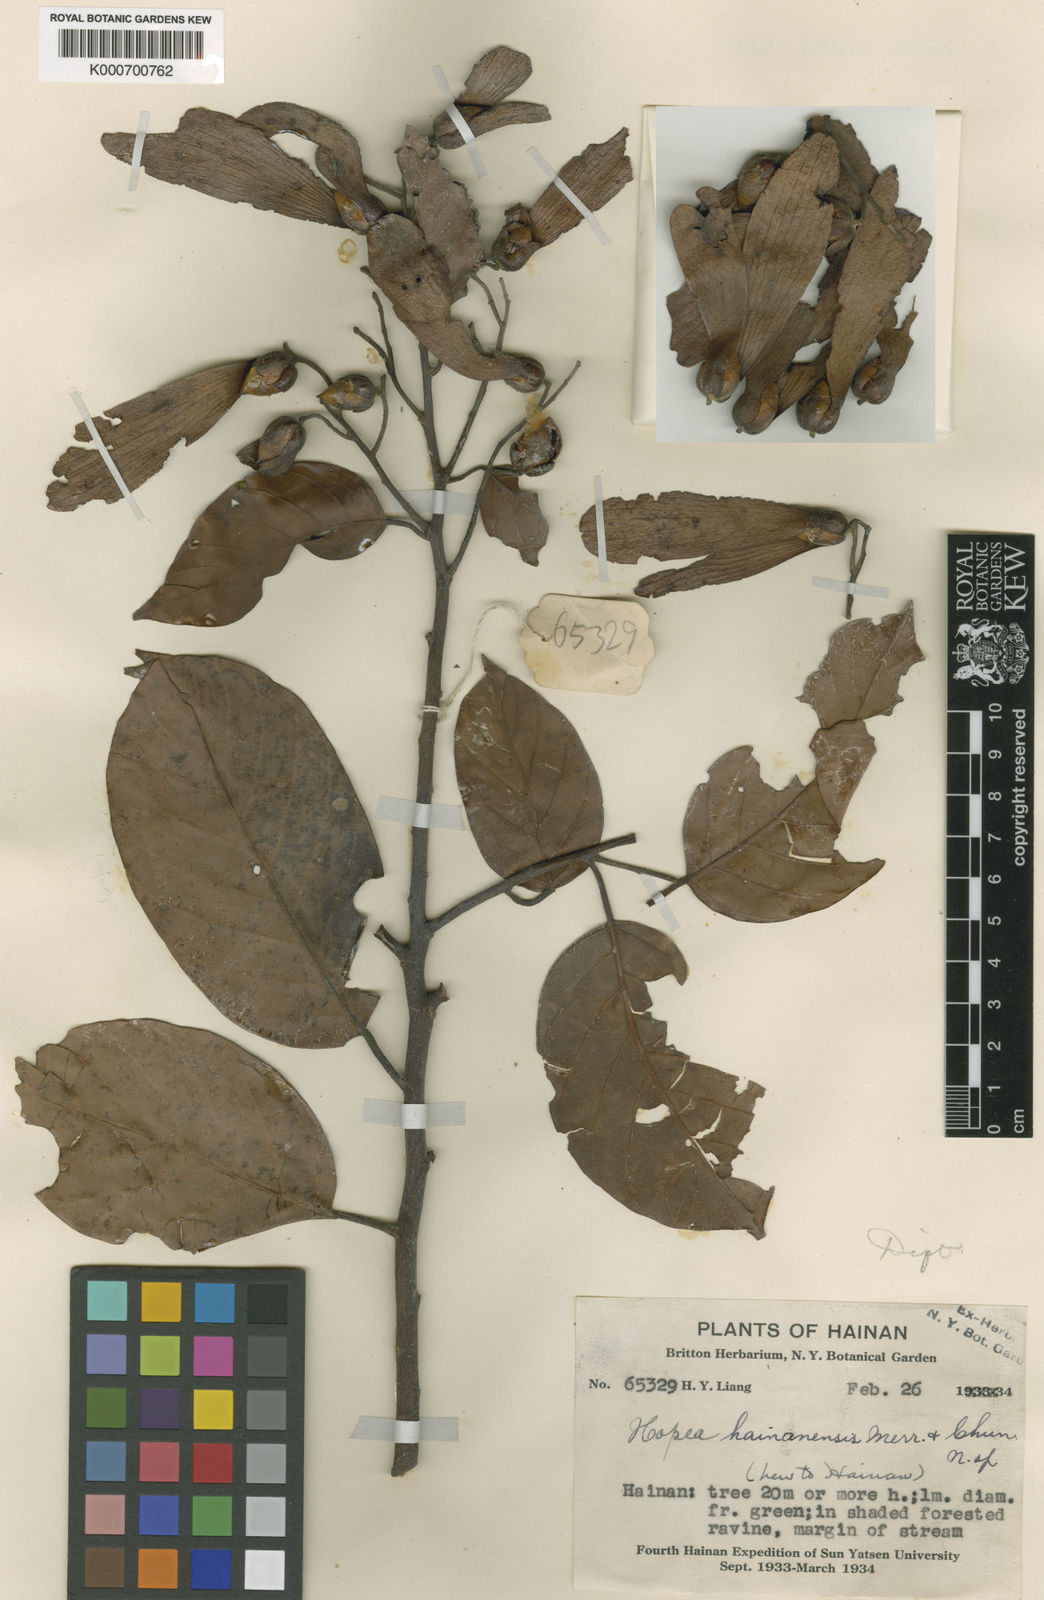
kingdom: Plantae
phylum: Tracheophyta
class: Magnoliopsida
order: Malvales
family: Dipterocarpaceae
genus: Hopea
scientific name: Hopea hainanensis
